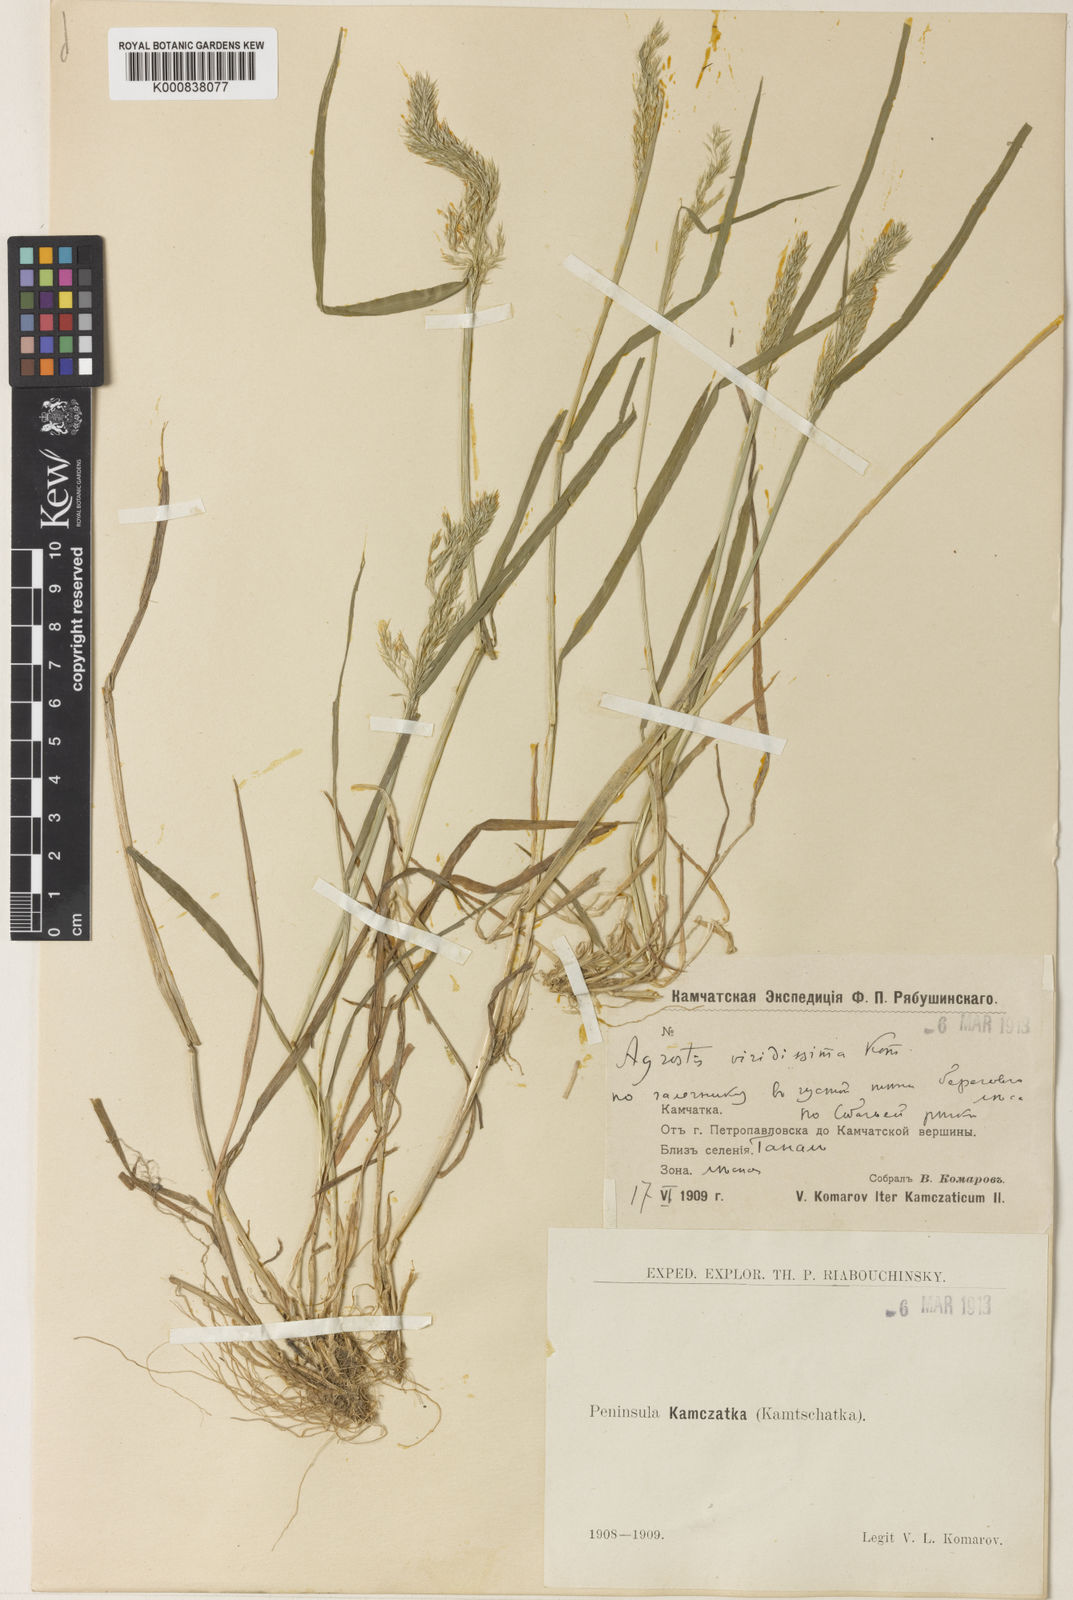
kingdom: Plantae
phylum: Tracheophyta
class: Liliopsida
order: Poales
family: Poaceae
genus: Agrostis
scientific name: Agrostis mertensii
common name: Northern bent
